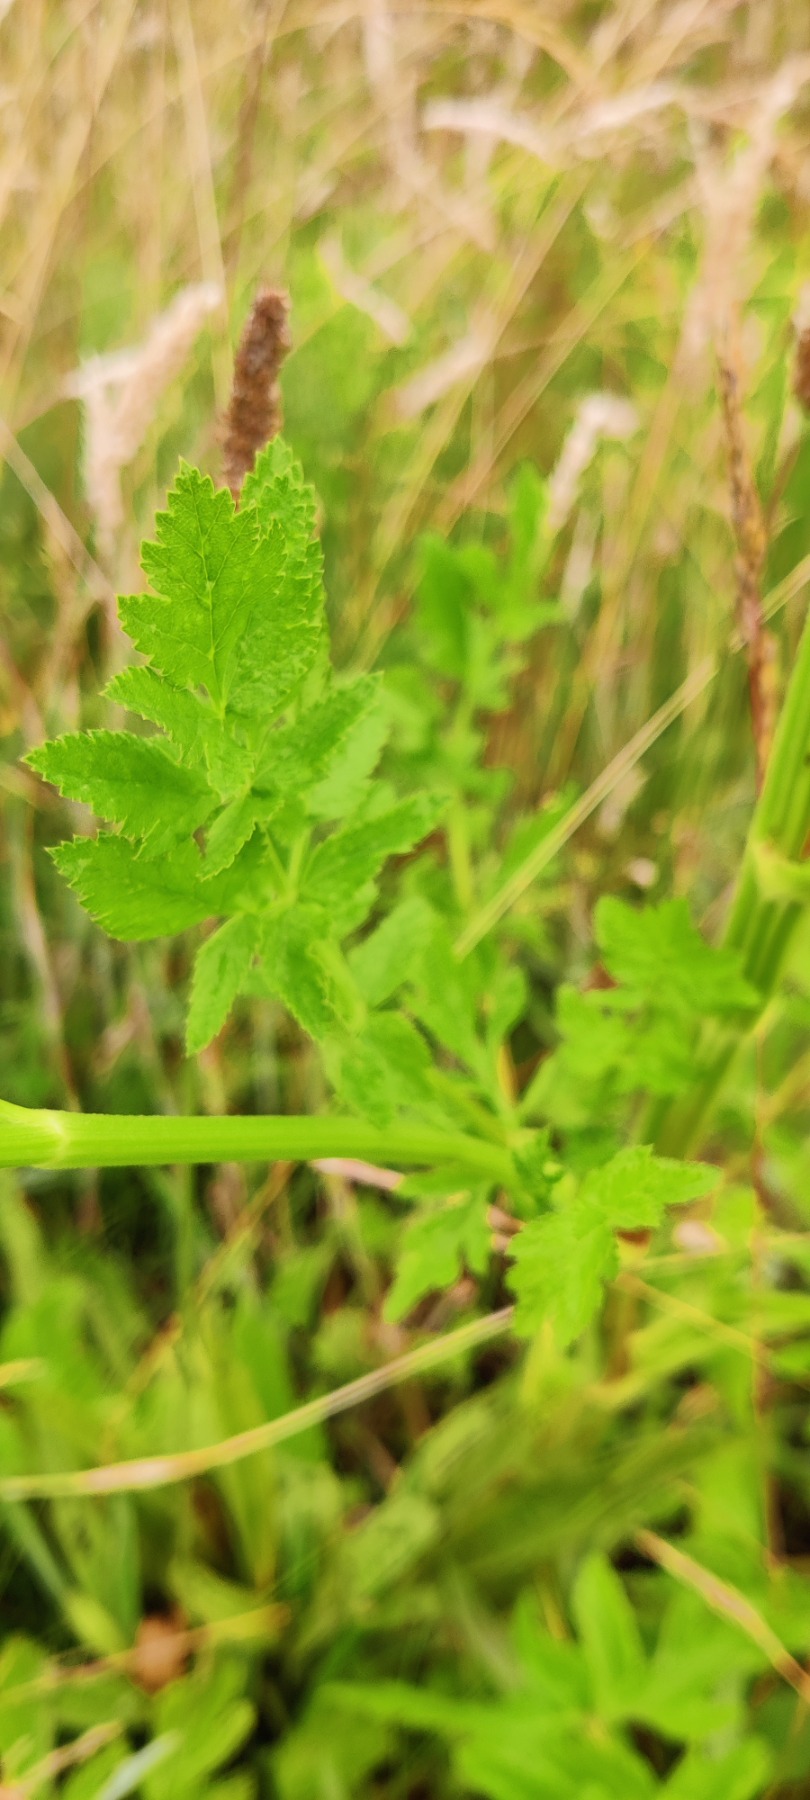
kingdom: Plantae
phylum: Tracheophyta
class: Magnoliopsida
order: Apiales
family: Apiaceae
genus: Pastinaca
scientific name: Pastinaca sativa
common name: Pastinak
